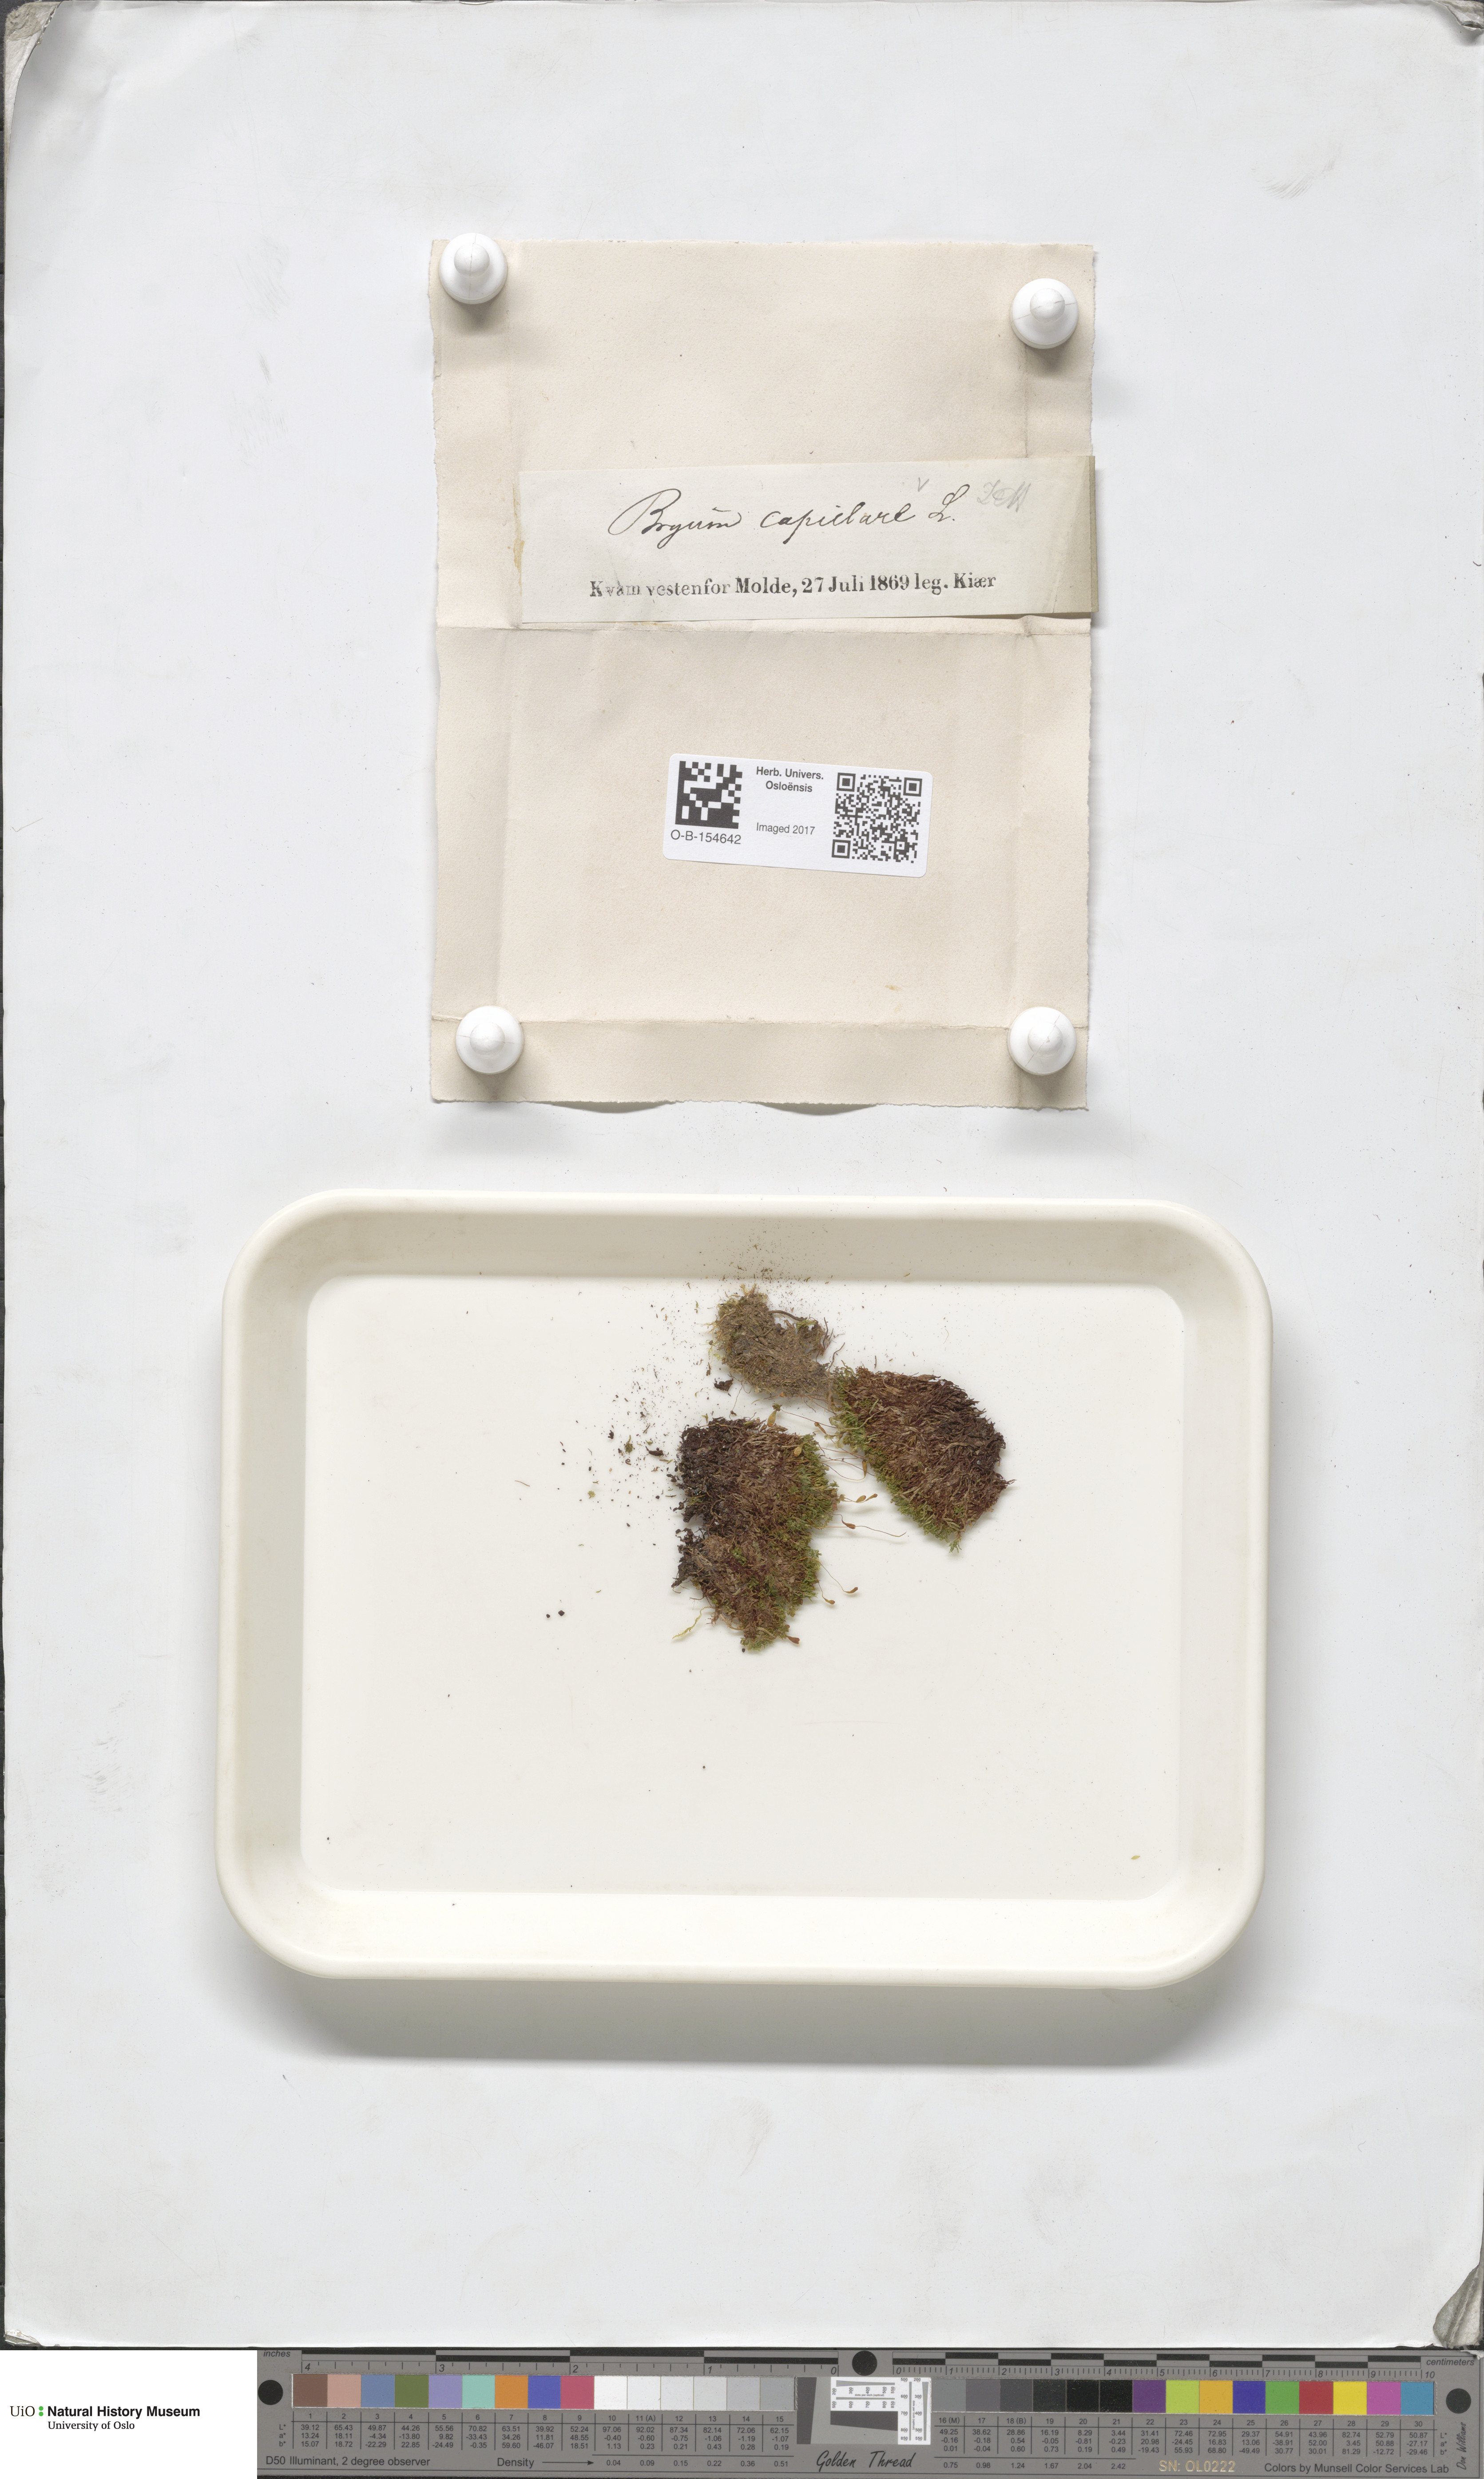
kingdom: Plantae
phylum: Bryophyta
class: Bryopsida
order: Bryales
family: Bryaceae
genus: Rosulabryum
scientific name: Rosulabryum capillare
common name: Capillary thread-moss
